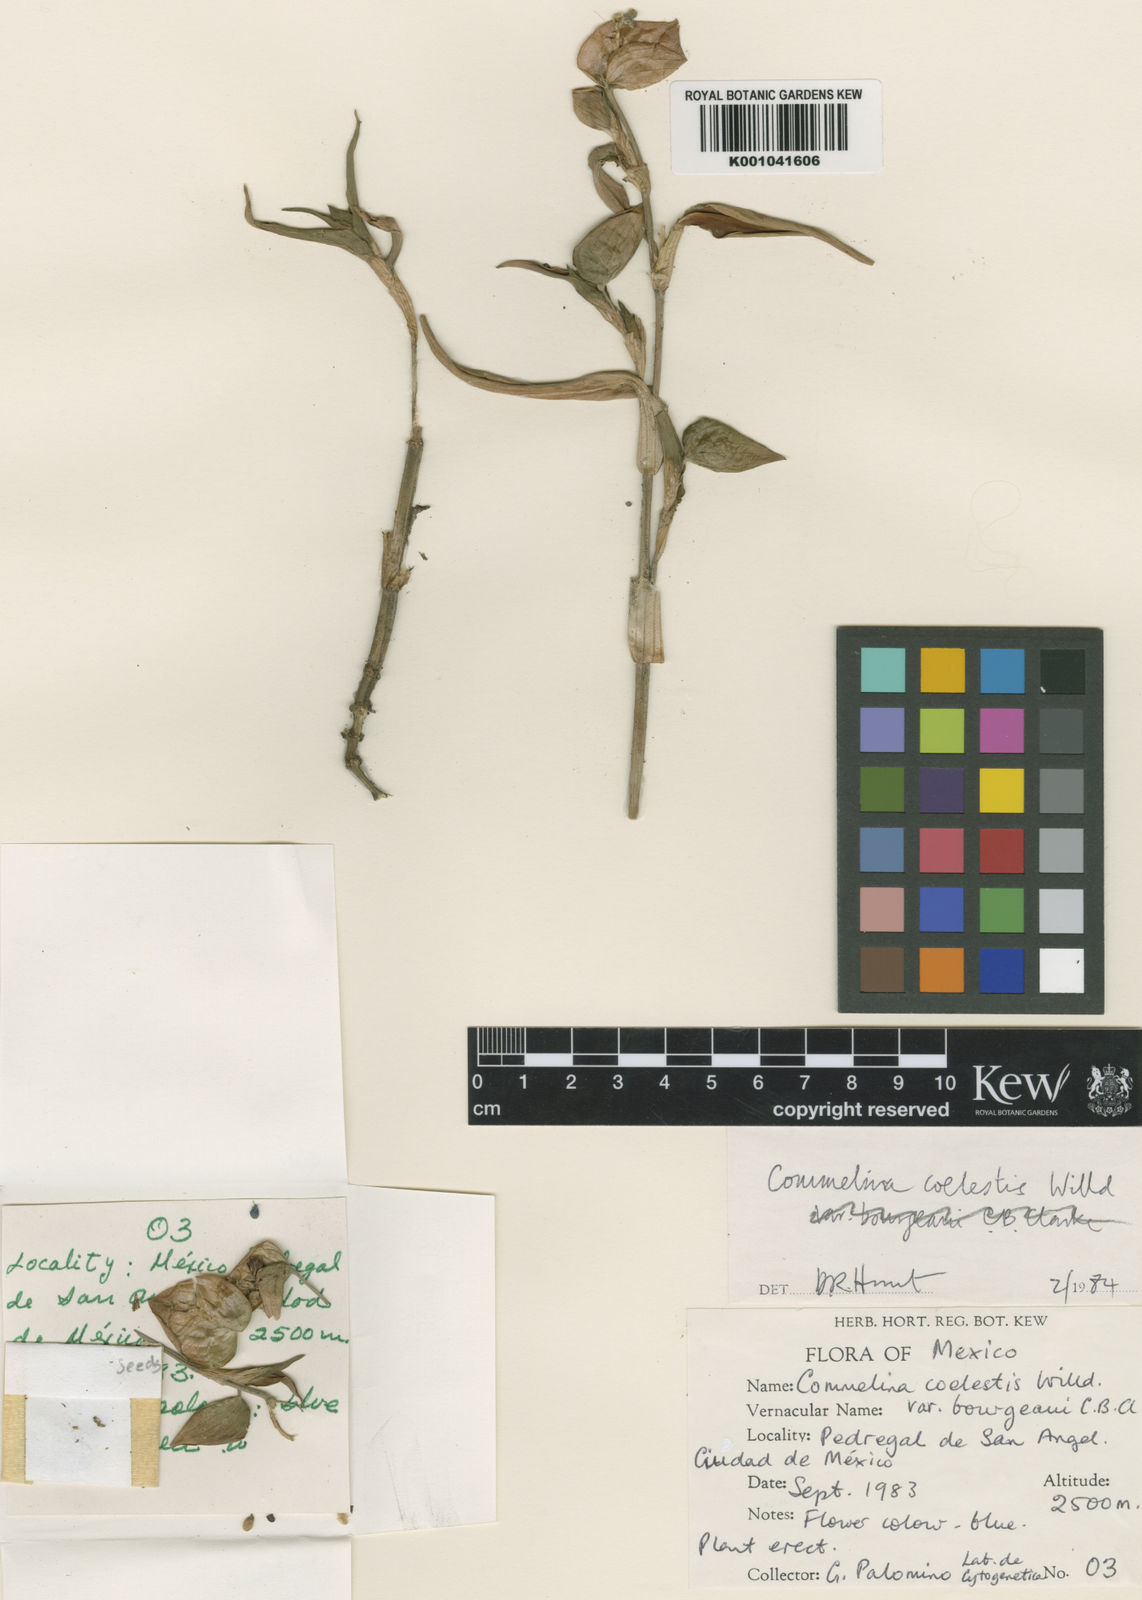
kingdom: Plantae
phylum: Tracheophyta
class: Liliopsida
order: Commelinales
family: Commelinaceae
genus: Commelina
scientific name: Commelina tuberosa
